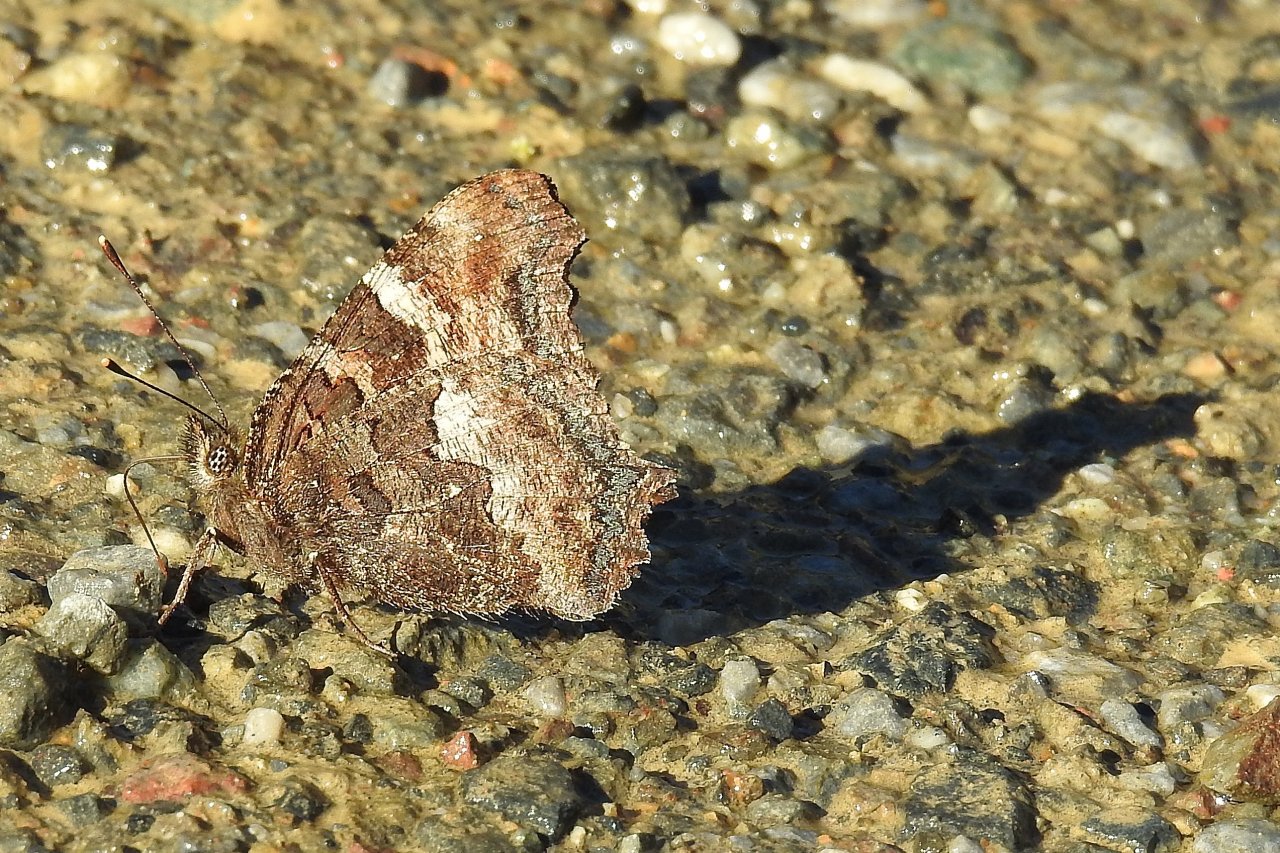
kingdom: Animalia
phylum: Arthropoda
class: Insecta
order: Lepidoptera
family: Nymphalidae
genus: Nymphalis
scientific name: Nymphalis californica
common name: California Tortoiseshell
